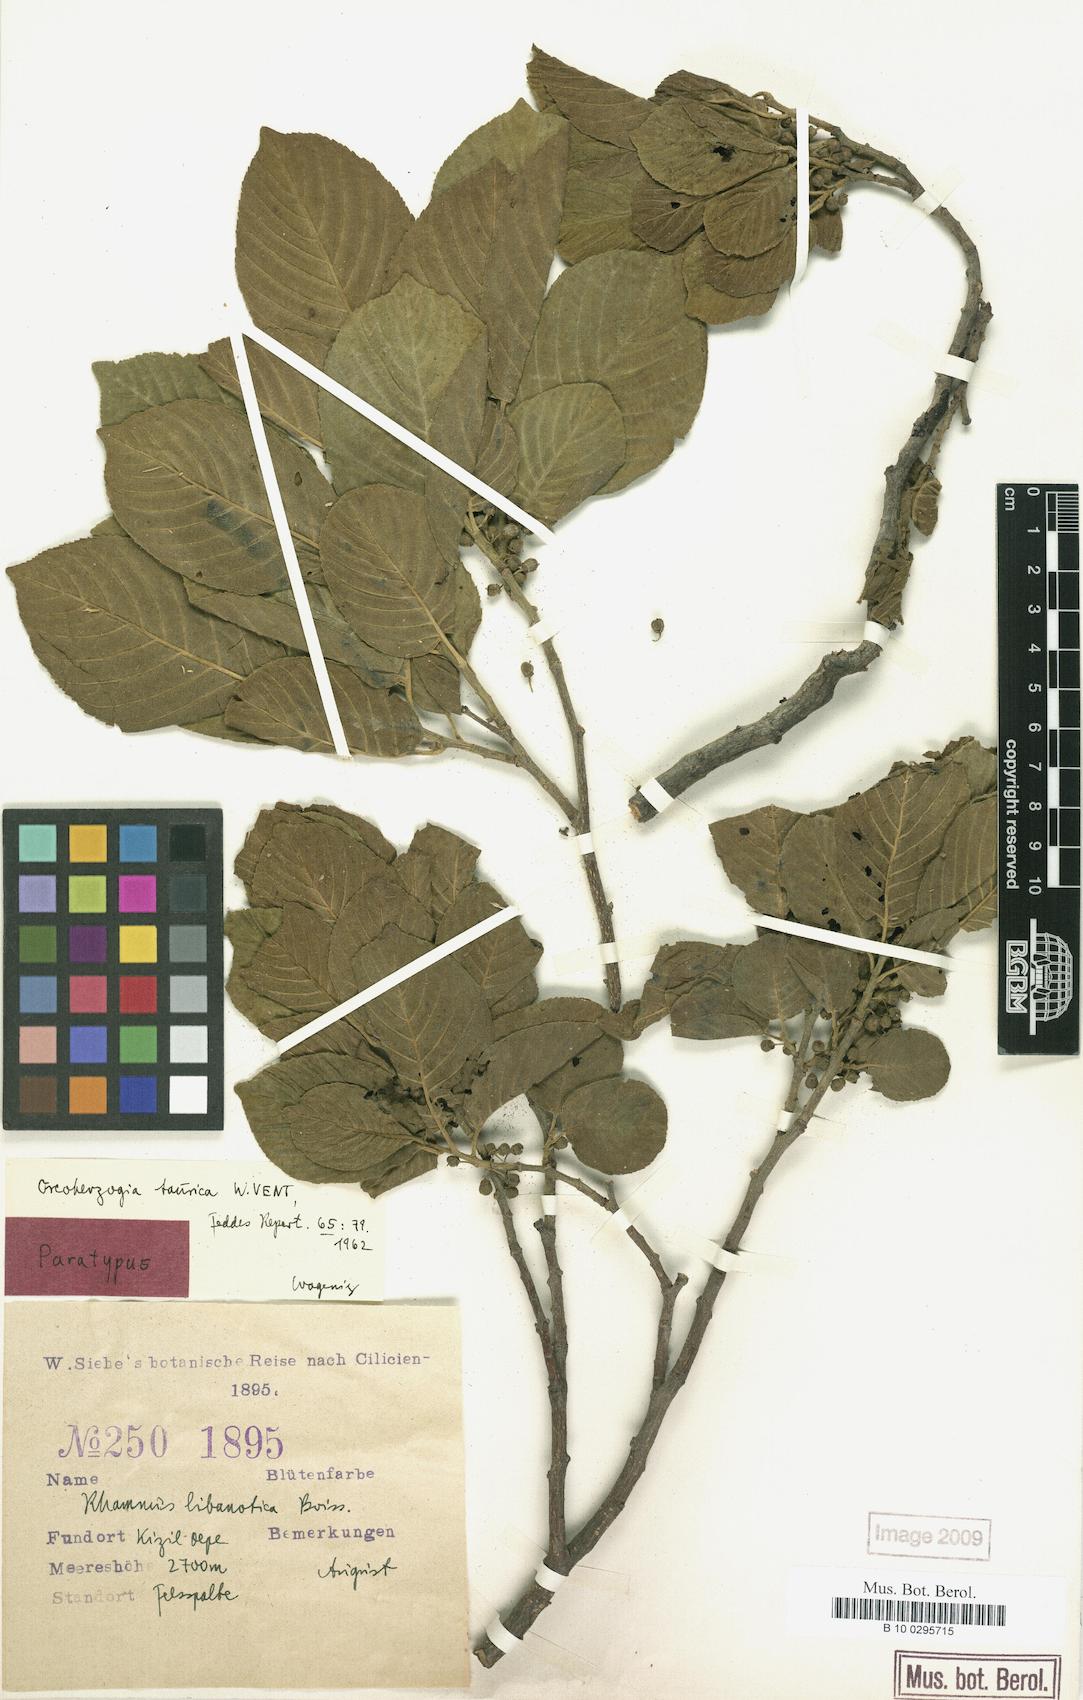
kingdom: Plantae
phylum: Tracheophyta
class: Magnoliopsida
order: Rosales
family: Rhamnaceae
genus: Atadinus
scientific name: Atadinus libanoticus
